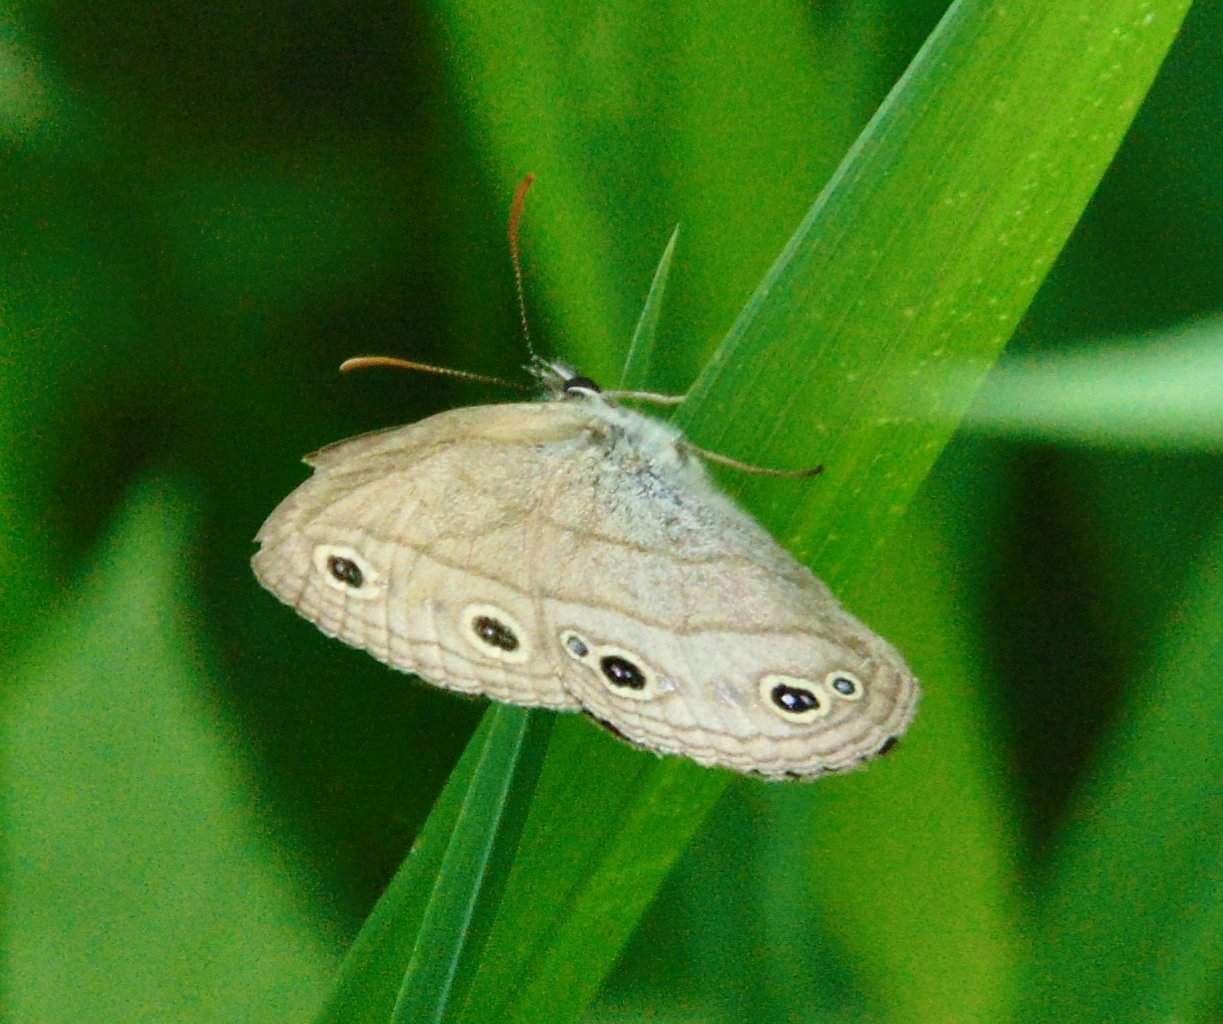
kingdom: Animalia
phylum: Arthropoda
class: Insecta
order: Lepidoptera
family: Nymphalidae
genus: Euptychia
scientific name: Euptychia cymela
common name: Little Wood Satyr
